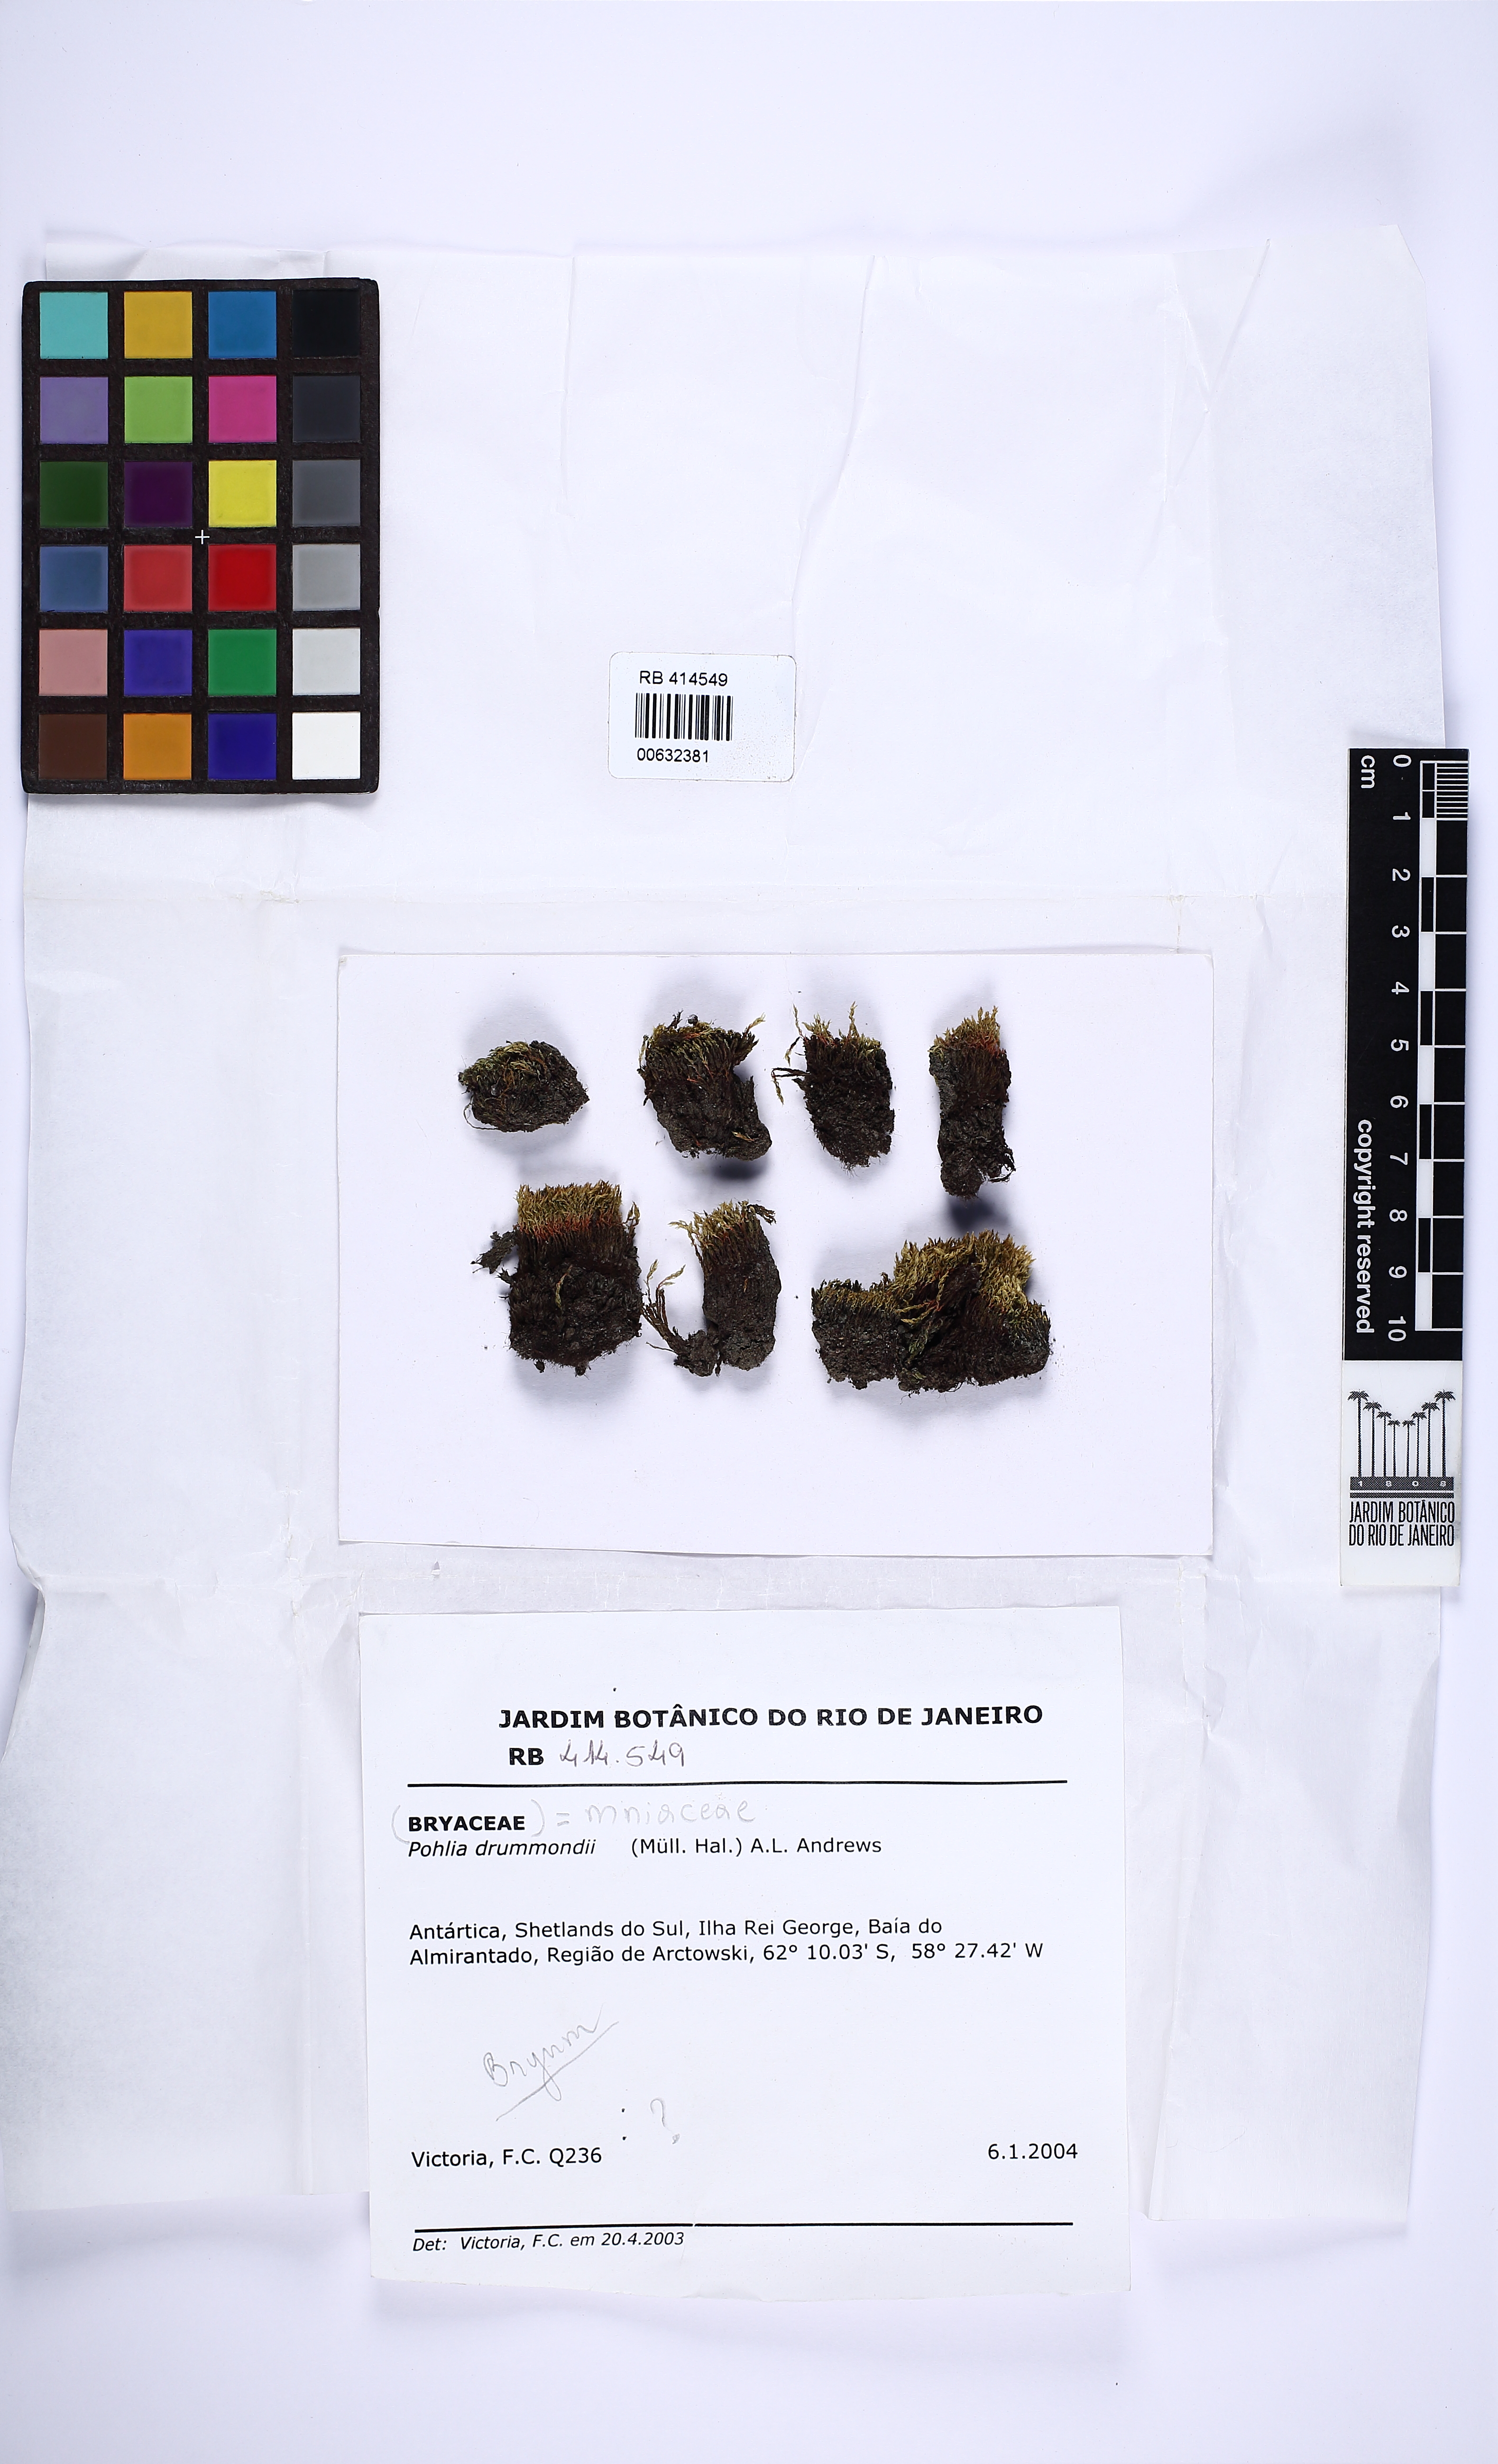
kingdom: Plantae
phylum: Bryophyta
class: Bryopsida
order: Bryales
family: Mniaceae
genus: Pohlia
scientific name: Pohlia drummondii
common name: Drummond's nodding moss
